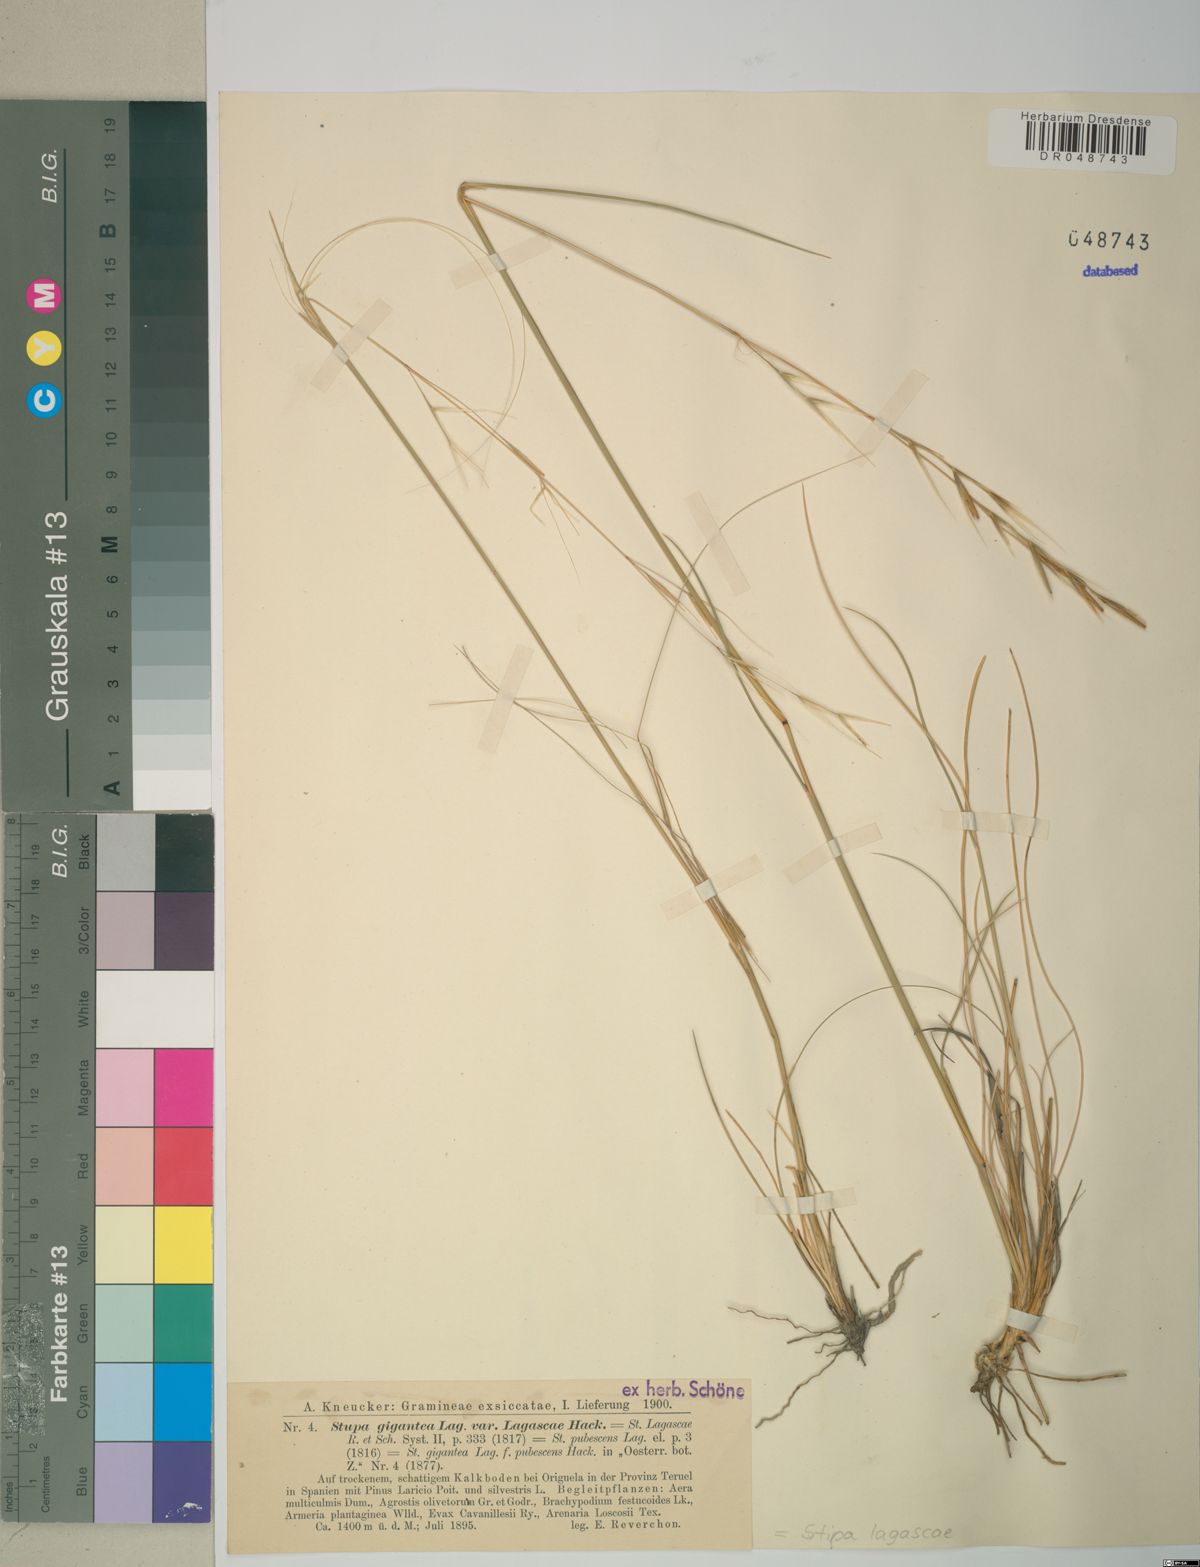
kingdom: Plantae
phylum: Tracheophyta
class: Liliopsida
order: Poales
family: Poaceae
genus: Stipa
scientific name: Stipa lagascae
